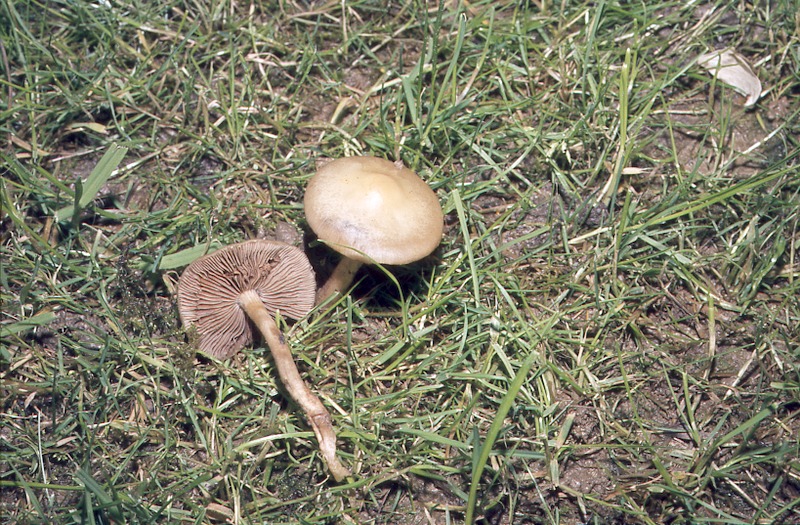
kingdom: Fungi
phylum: Basidiomycota
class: Agaricomycetes
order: Agaricales
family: Strophariaceae
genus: Agrocybe
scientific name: Agrocybe praecox
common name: Spring fieldcap
